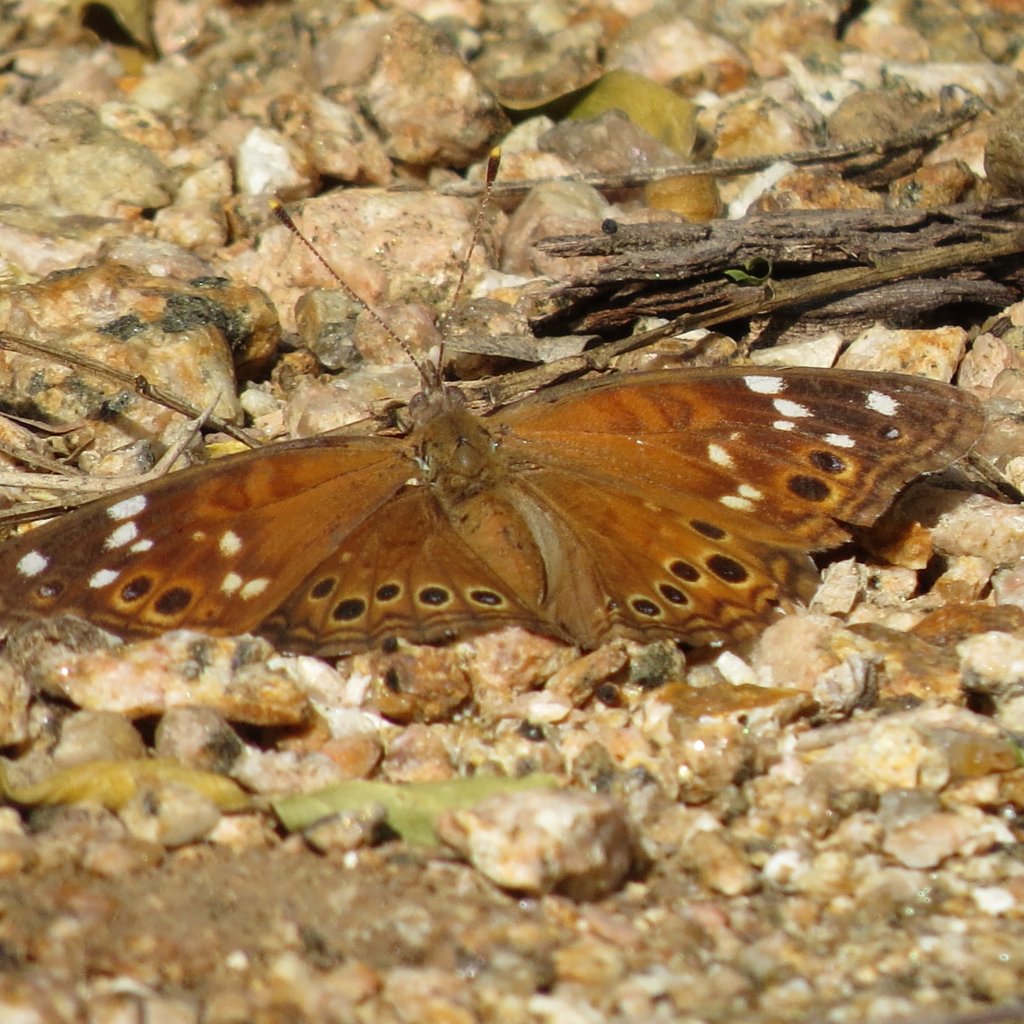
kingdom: Animalia
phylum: Arthropoda
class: Insecta
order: Lepidoptera
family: Nymphalidae
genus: Asterocampa
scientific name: Asterocampa leilia
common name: Empress Leilia
